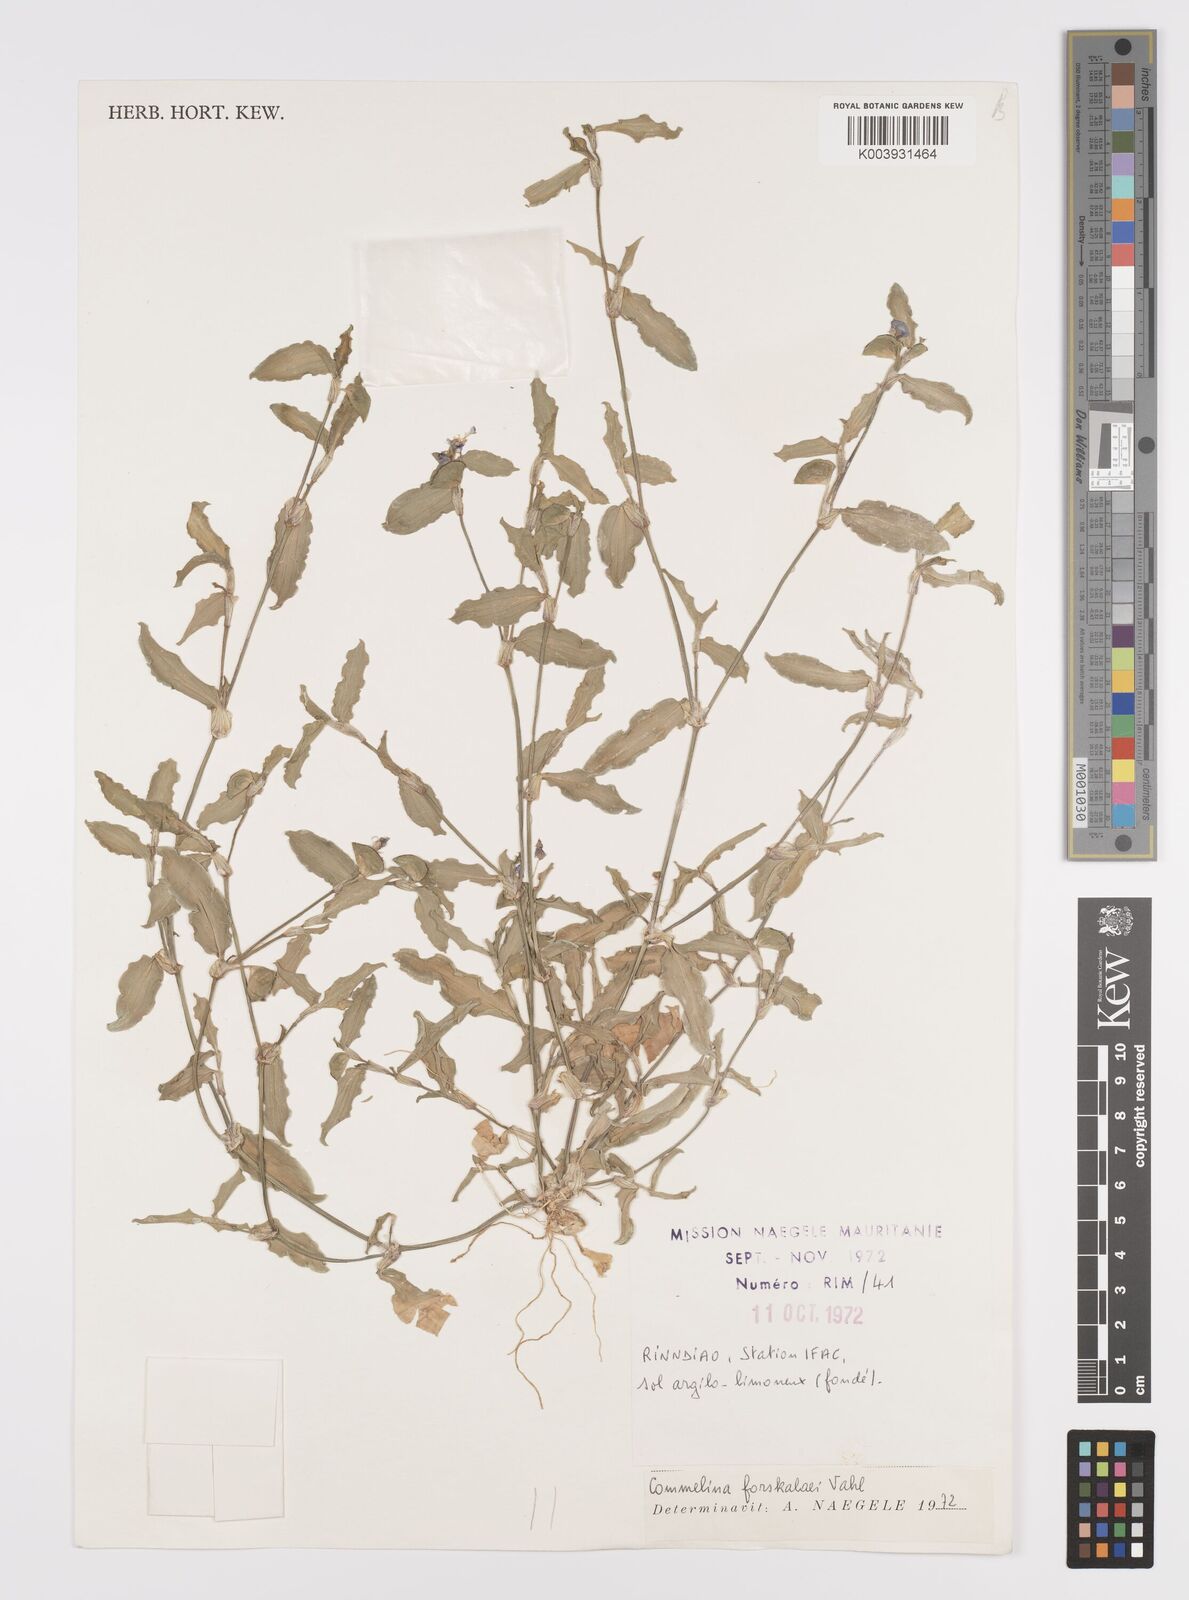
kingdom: Plantae
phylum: Tracheophyta
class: Liliopsida
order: Commelinales
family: Commelinaceae
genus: Commelina
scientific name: Commelina forskaolii
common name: Rat's ear
